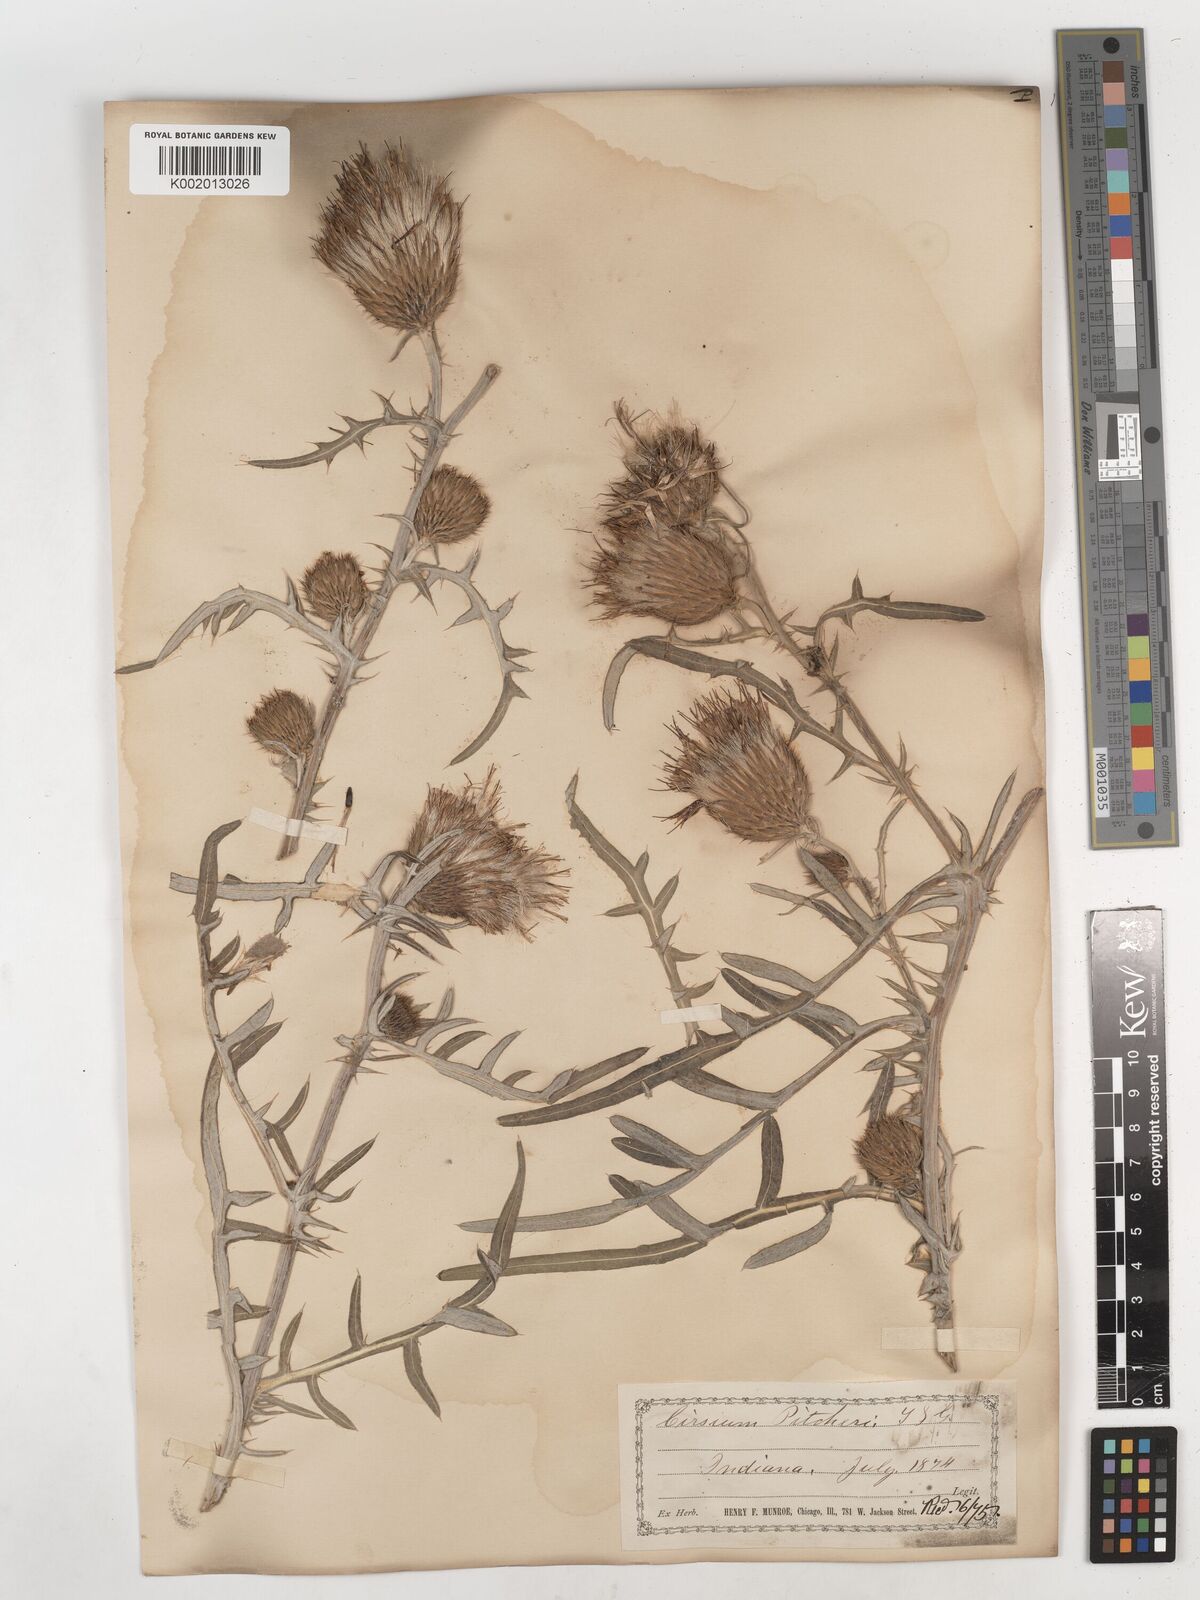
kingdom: Plantae
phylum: Tracheophyta
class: Magnoliopsida
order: Asterales
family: Asteraceae
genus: Cirsium
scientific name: Cirsium pitcheri
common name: Dune thistle
